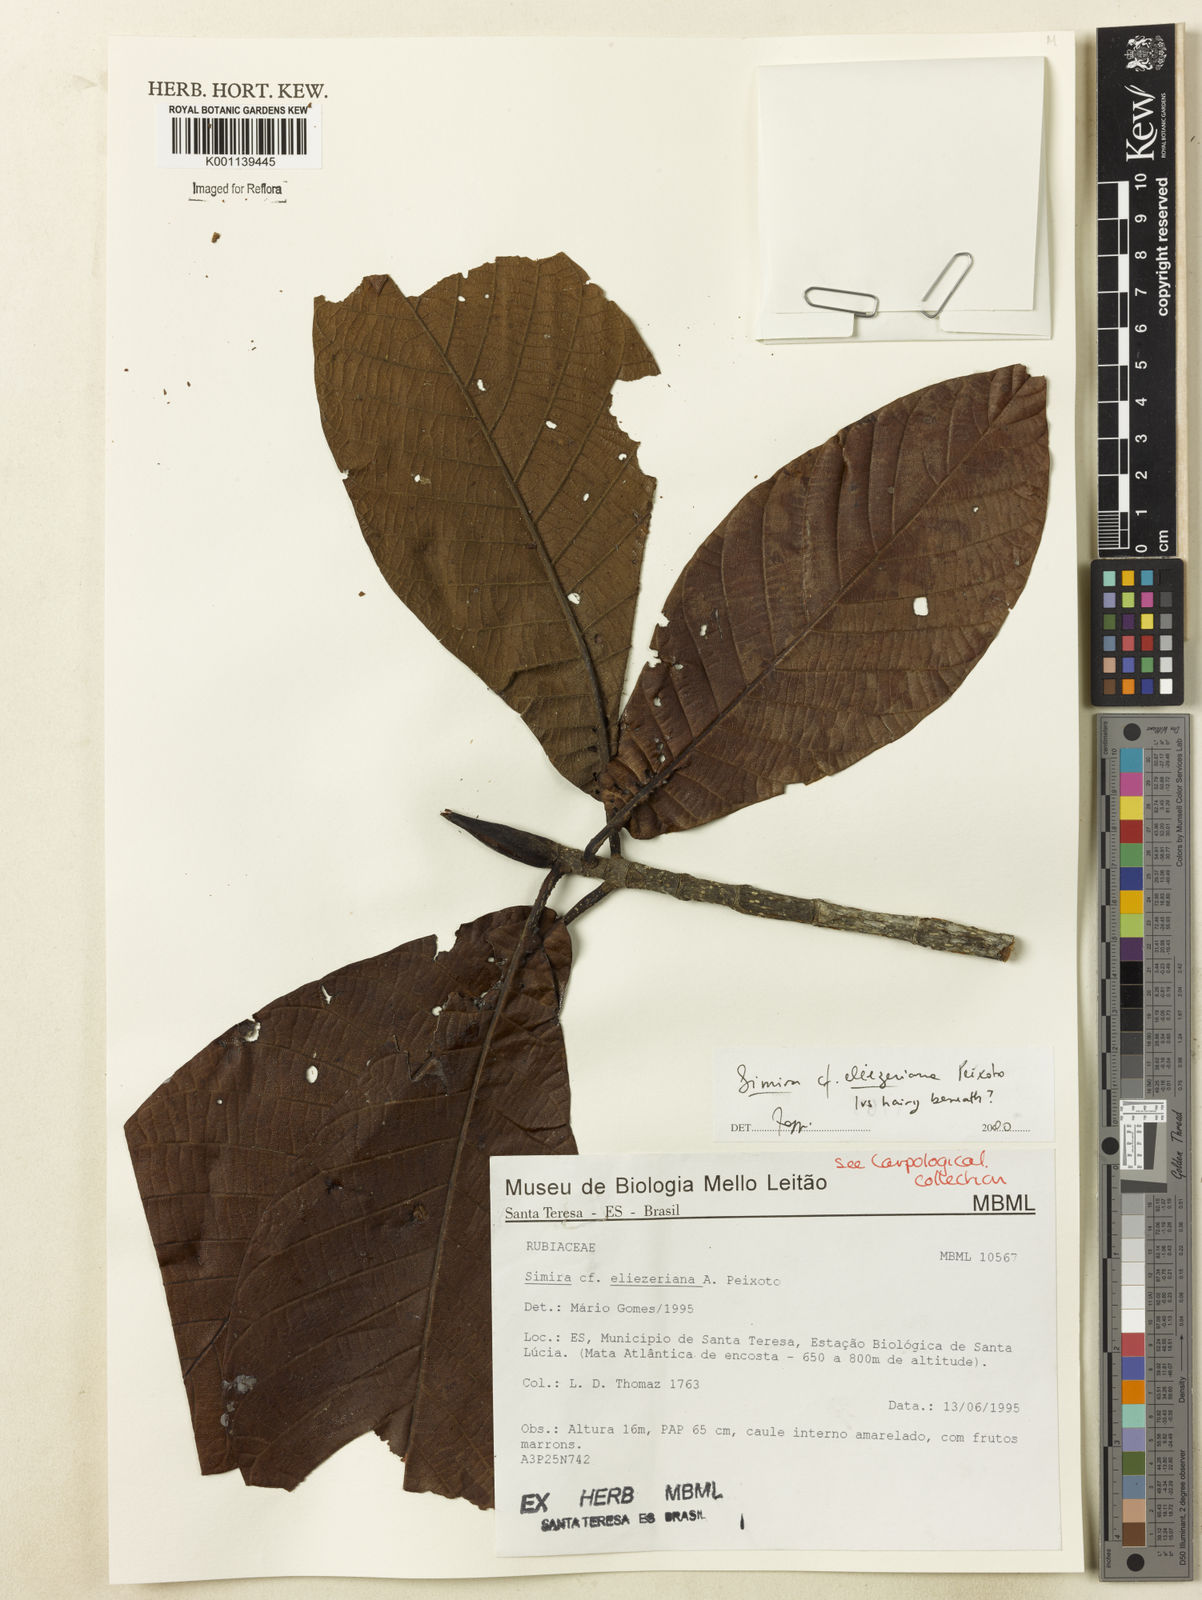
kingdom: Plantae
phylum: Tracheophyta
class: Magnoliopsida
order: Gentianales
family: Rubiaceae
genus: Simira
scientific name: Simira eliezeriana
